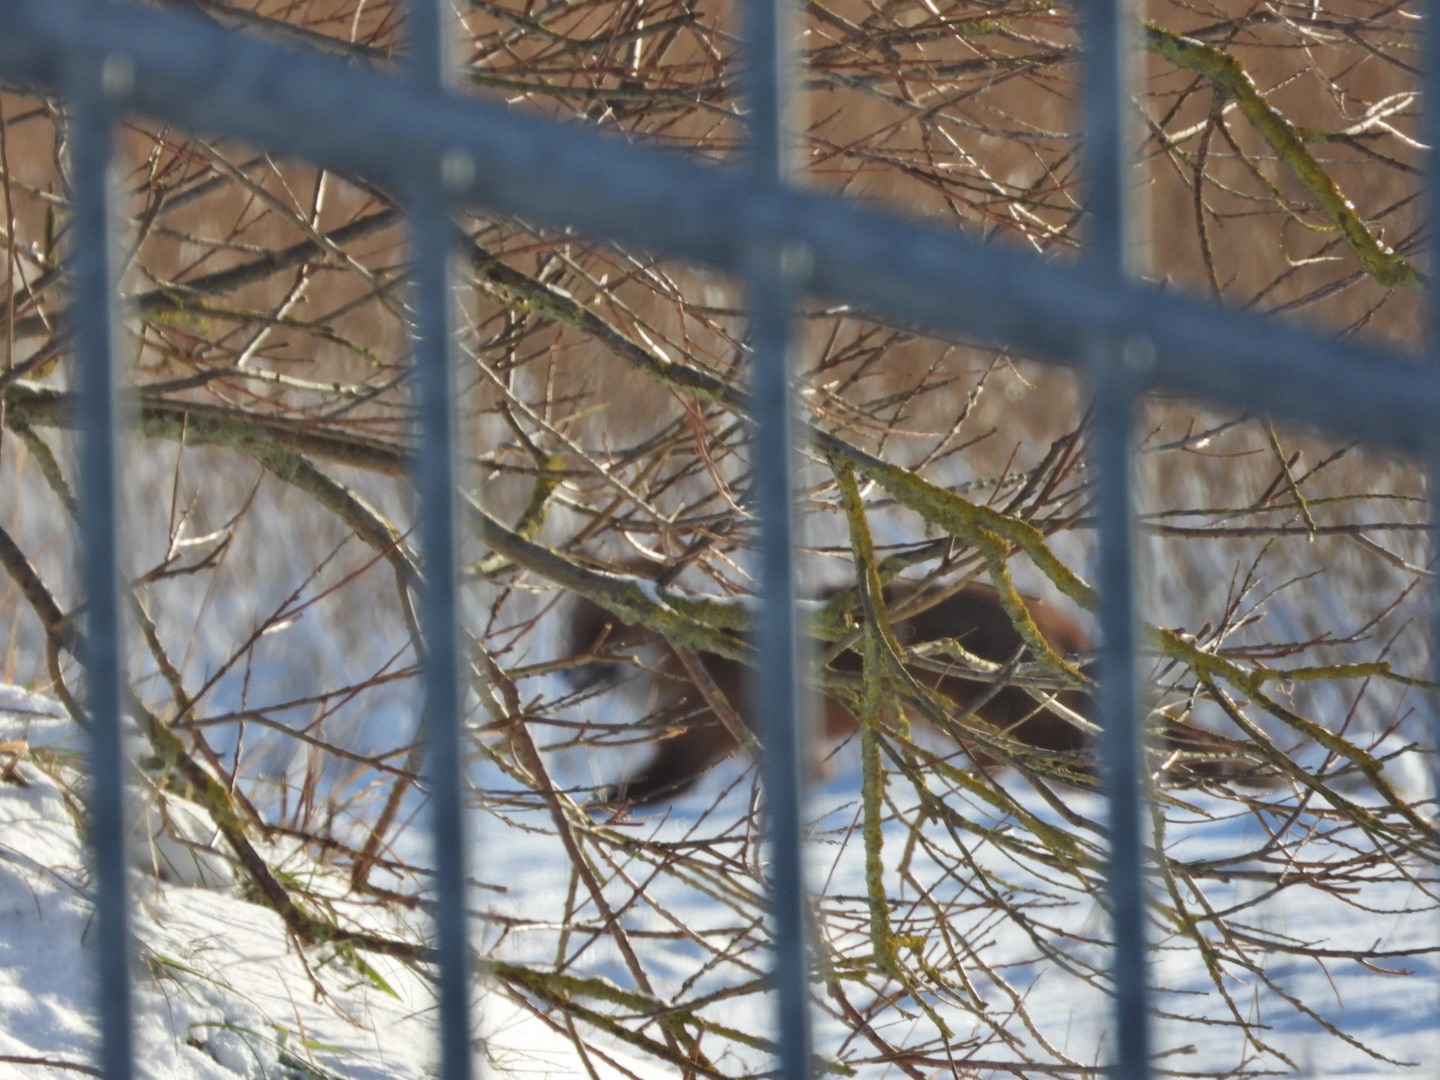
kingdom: Animalia
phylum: Chordata
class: Mammalia
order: Carnivora
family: Canidae
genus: Vulpes
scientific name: Vulpes vulpes
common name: Ræv
